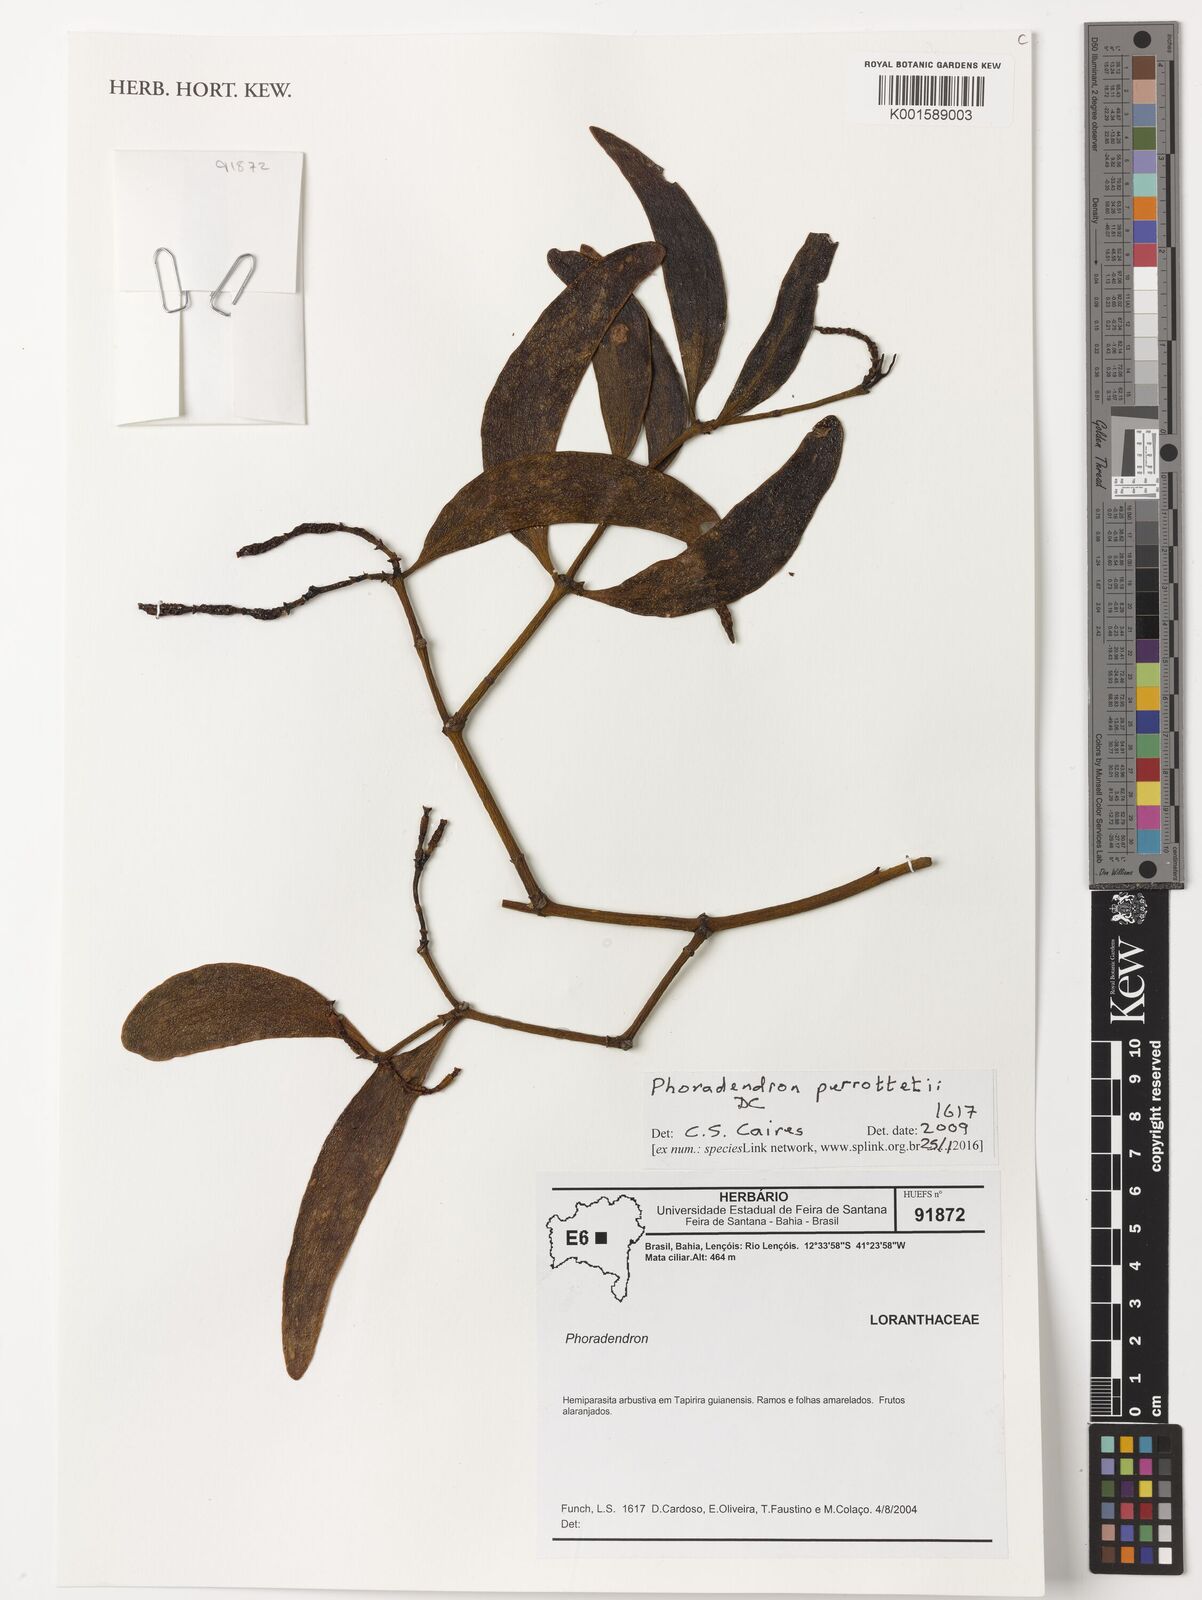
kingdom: Plantae
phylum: Tracheophyta
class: Magnoliopsida
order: Santalales
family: Viscaceae
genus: Phoradendron
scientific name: Phoradendron perrottetii
